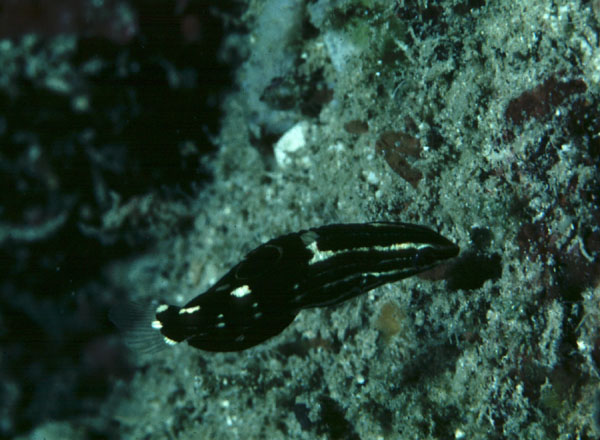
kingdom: Animalia
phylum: Chordata
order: Perciformes
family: Labridae
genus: Halichoeres
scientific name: Halichoeres marginatus
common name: Dusky wrasse
